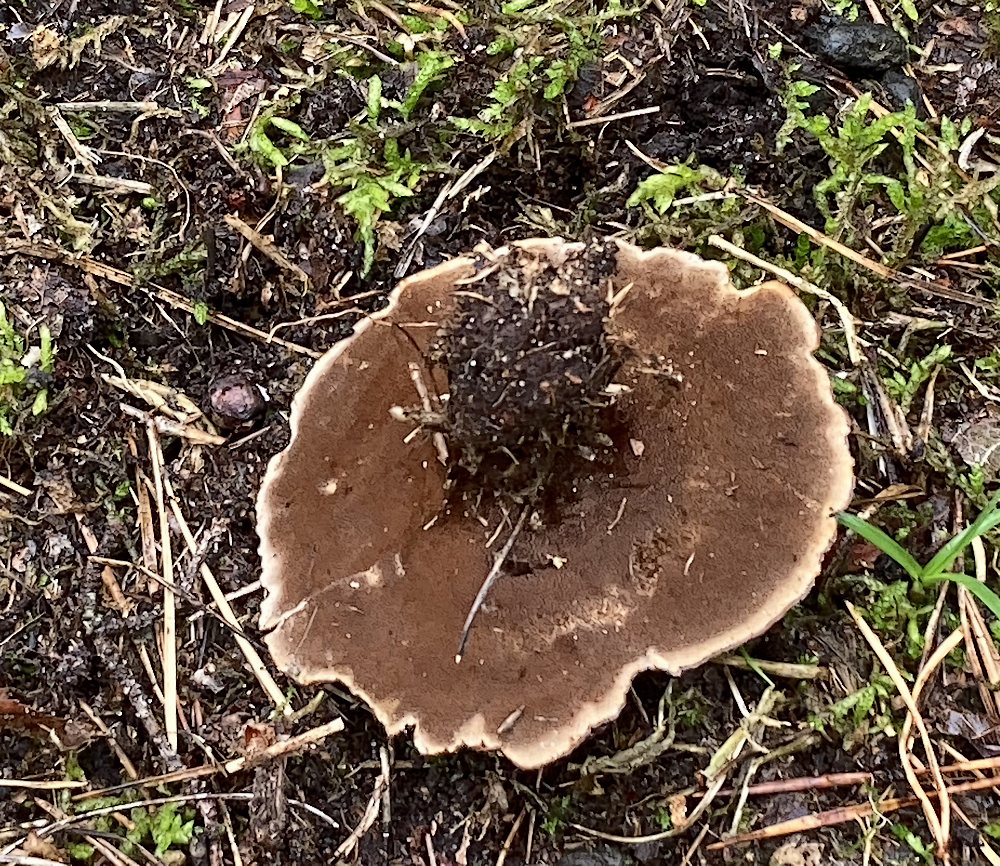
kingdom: Fungi
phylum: Basidiomycota
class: Agaricomycetes
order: Hymenochaetales
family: Hymenochaetaceae
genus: Coltricia
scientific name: Coltricia perennis
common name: almindelig sandporesvamp
